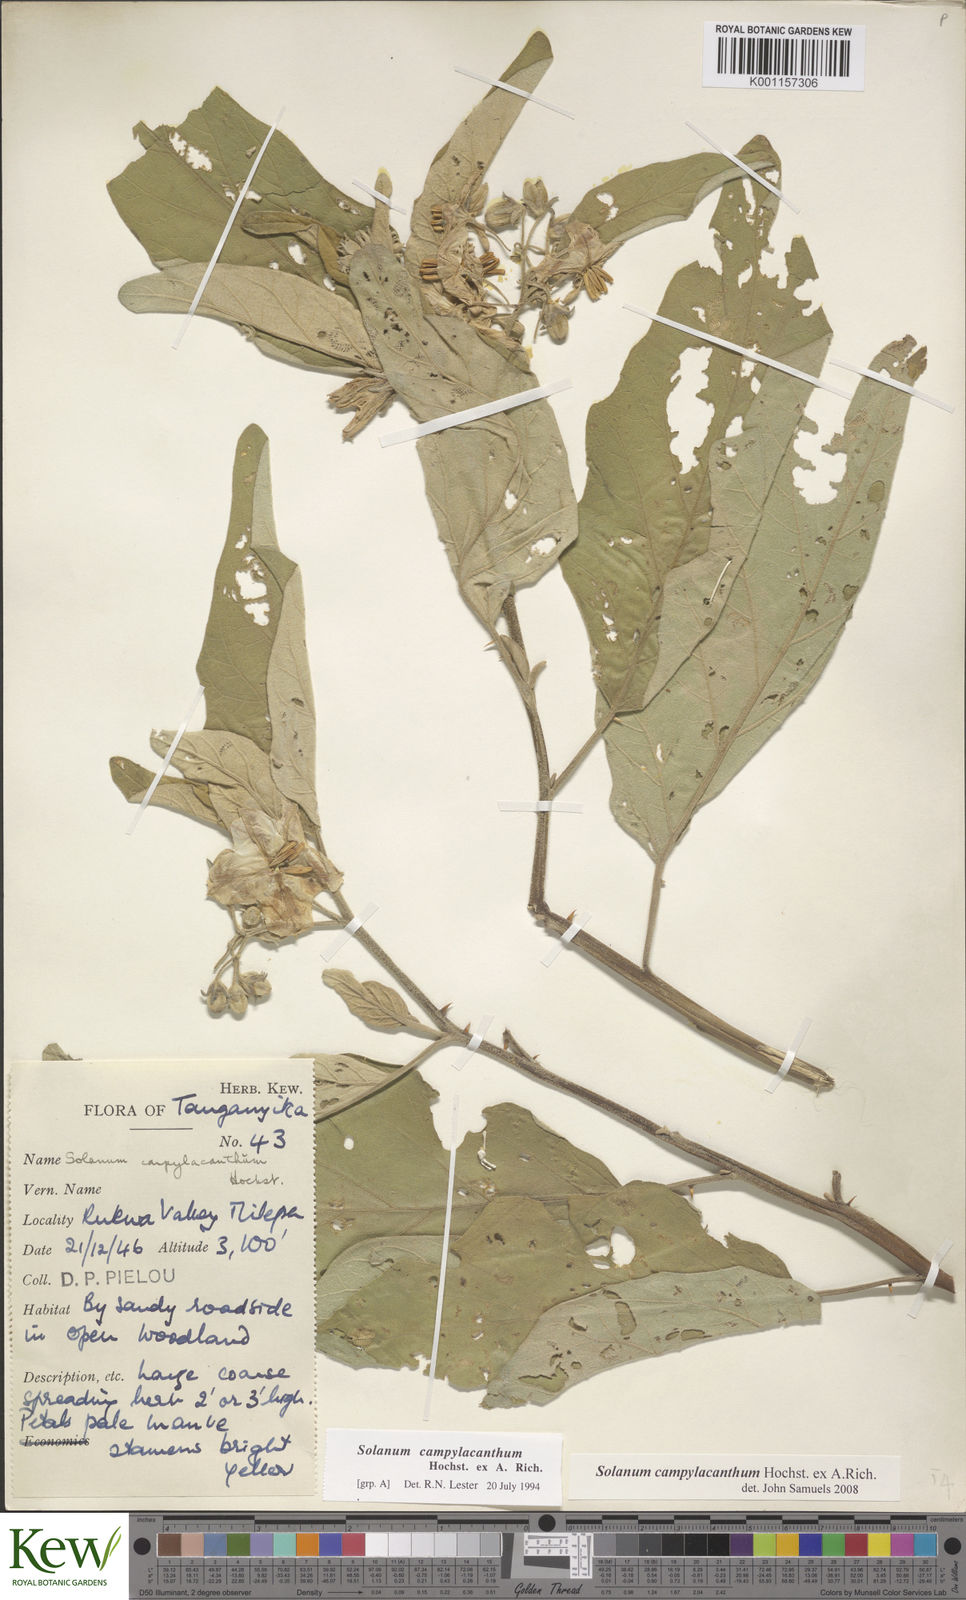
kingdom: Plantae
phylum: Tracheophyta
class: Magnoliopsida
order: Solanales
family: Solanaceae
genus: Solanum
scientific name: Solanum campylacanthum
